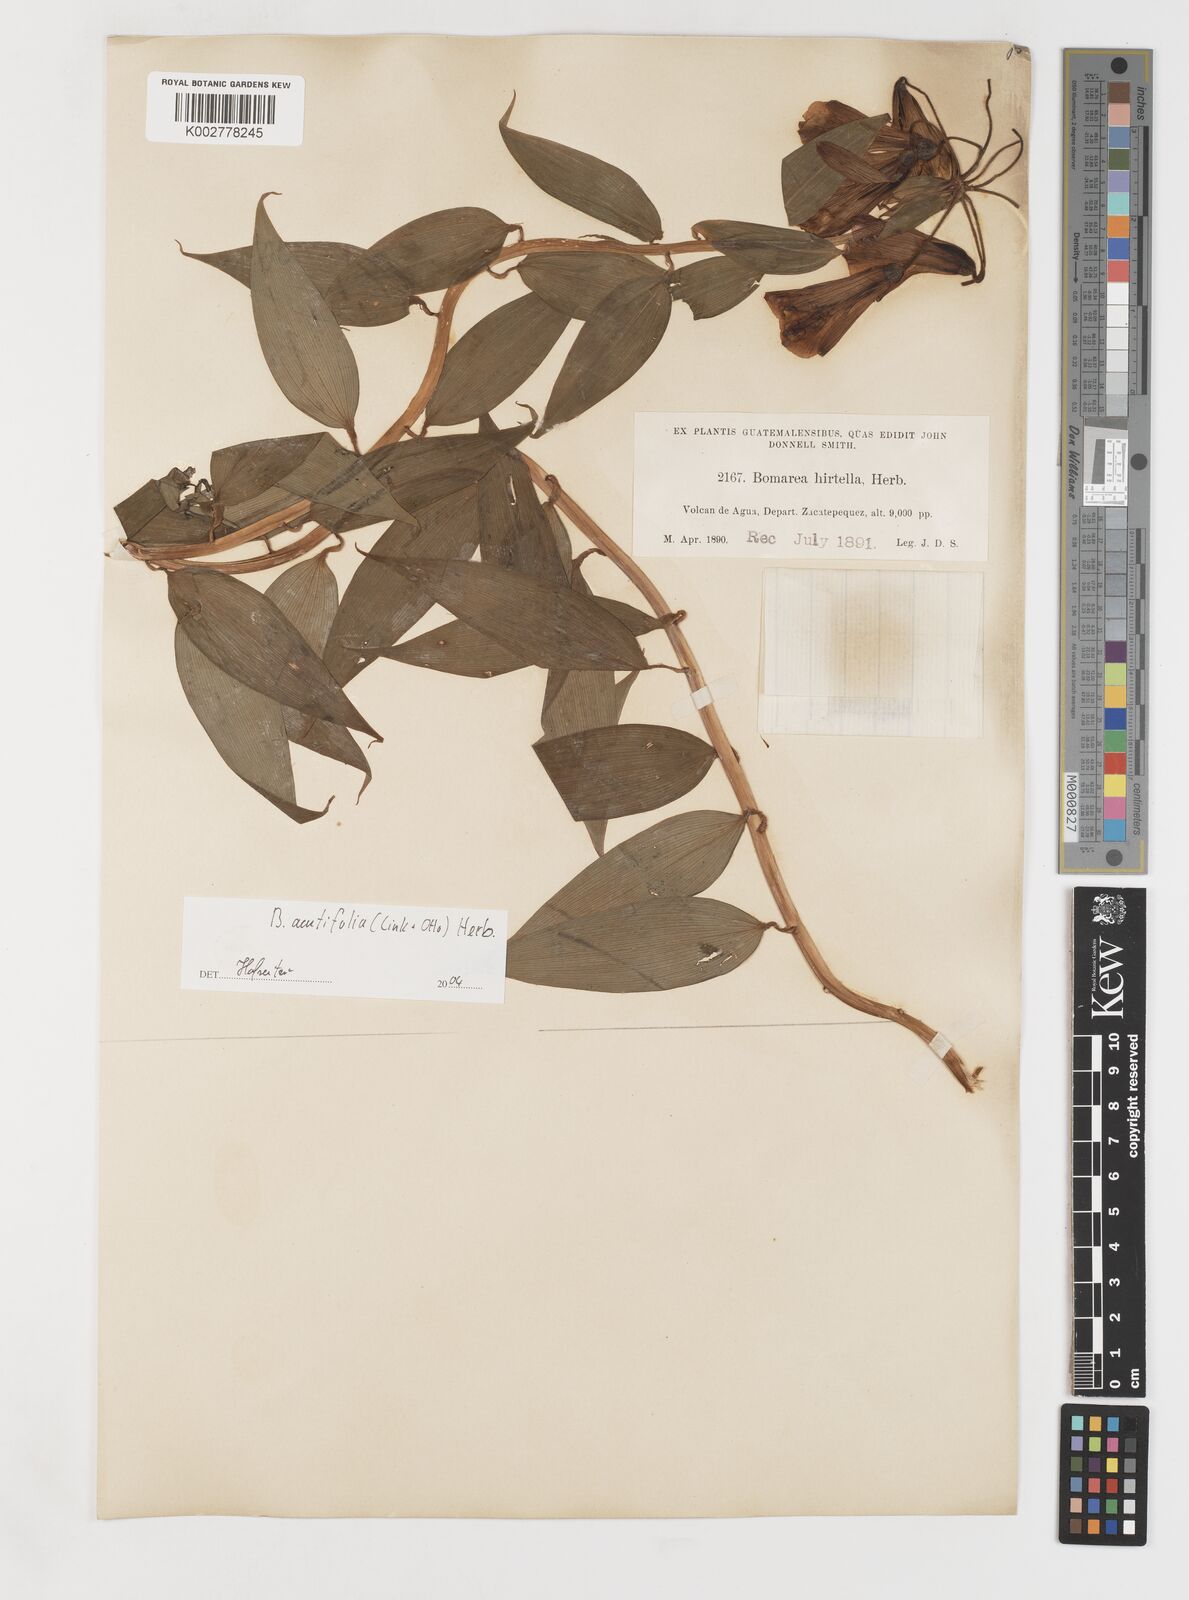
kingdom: Plantae
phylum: Tracheophyta
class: Liliopsida
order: Liliales
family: Alstroemeriaceae
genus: Bomarea
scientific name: Bomarea acutifolia
